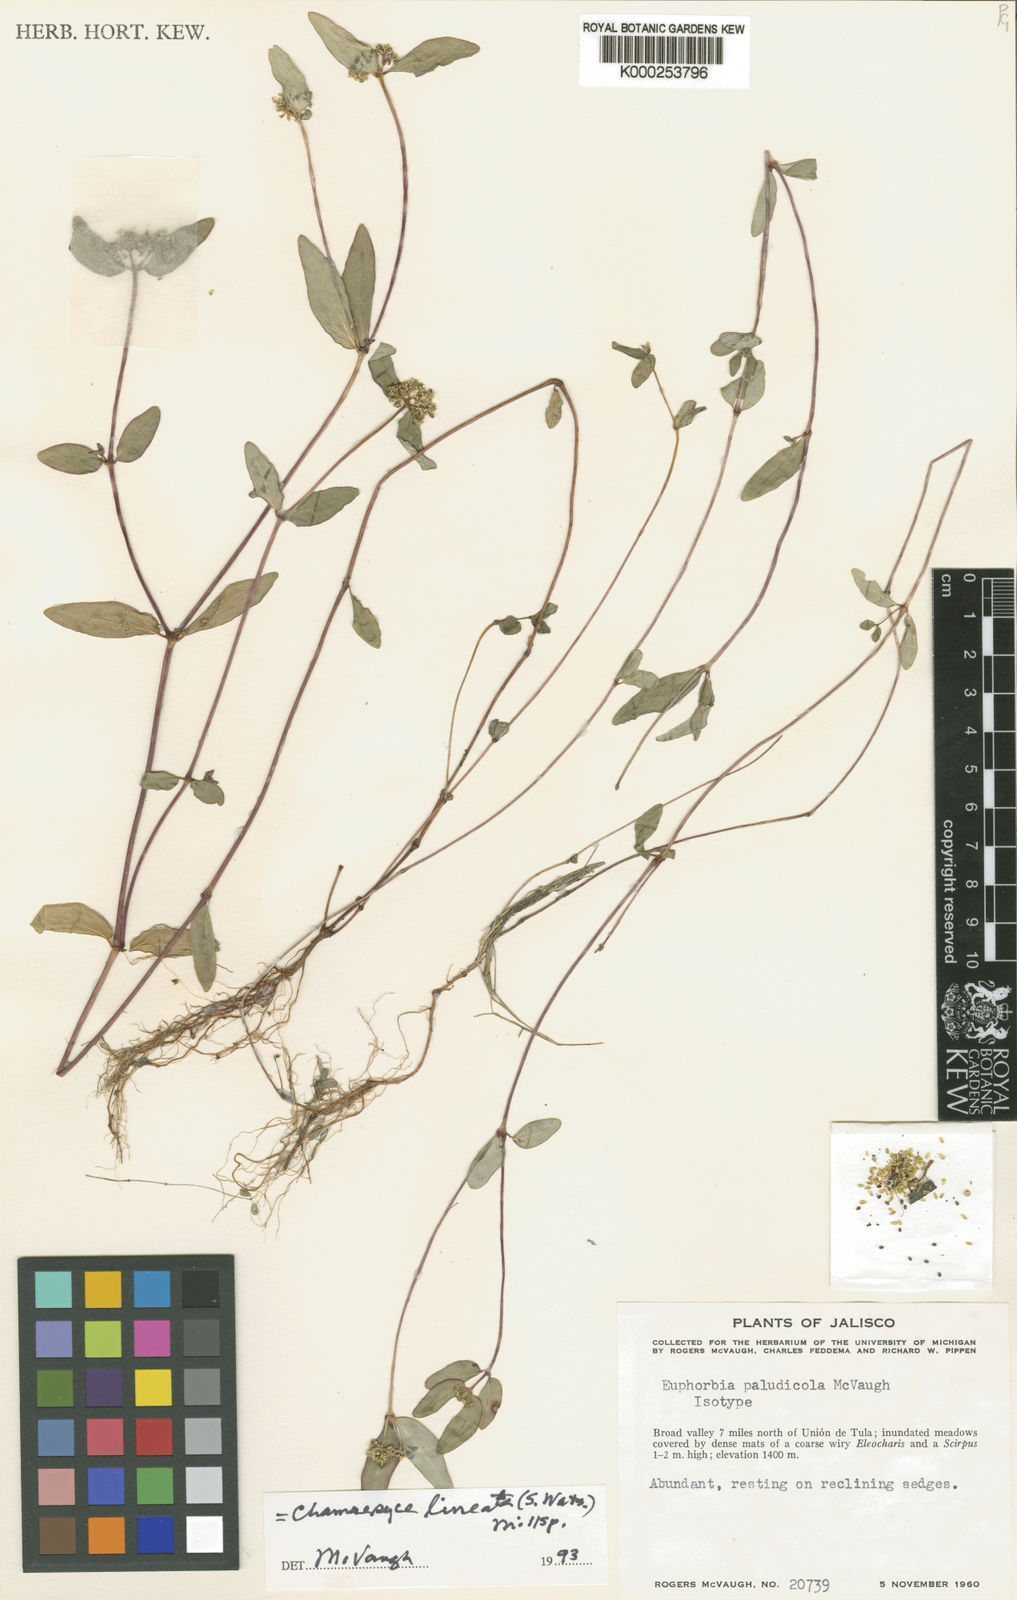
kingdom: Plantae
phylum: Tracheophyta
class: Magnoliopsida
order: Malpighiales
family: Euphorbiaceae
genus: Euphorbia
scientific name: Euphorbia lineata
